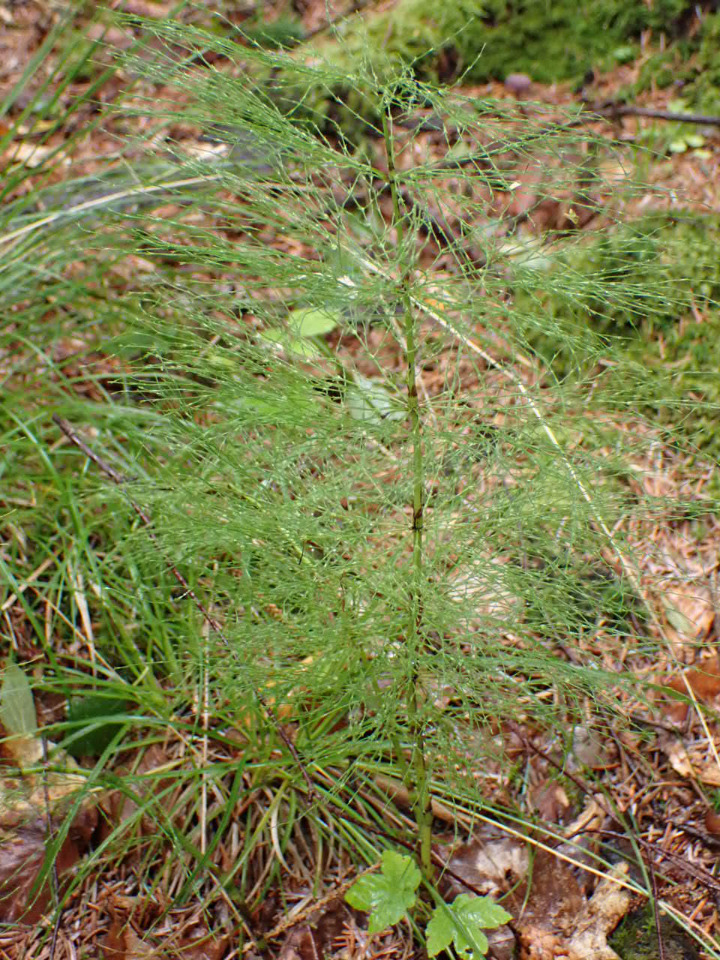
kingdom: Plantae
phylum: Tracheophyta
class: Polypodiopsida
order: Equisetales
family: Equisetaceae
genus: Equisetum
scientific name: Equisetum sylvaticum
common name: Skov-padderok
